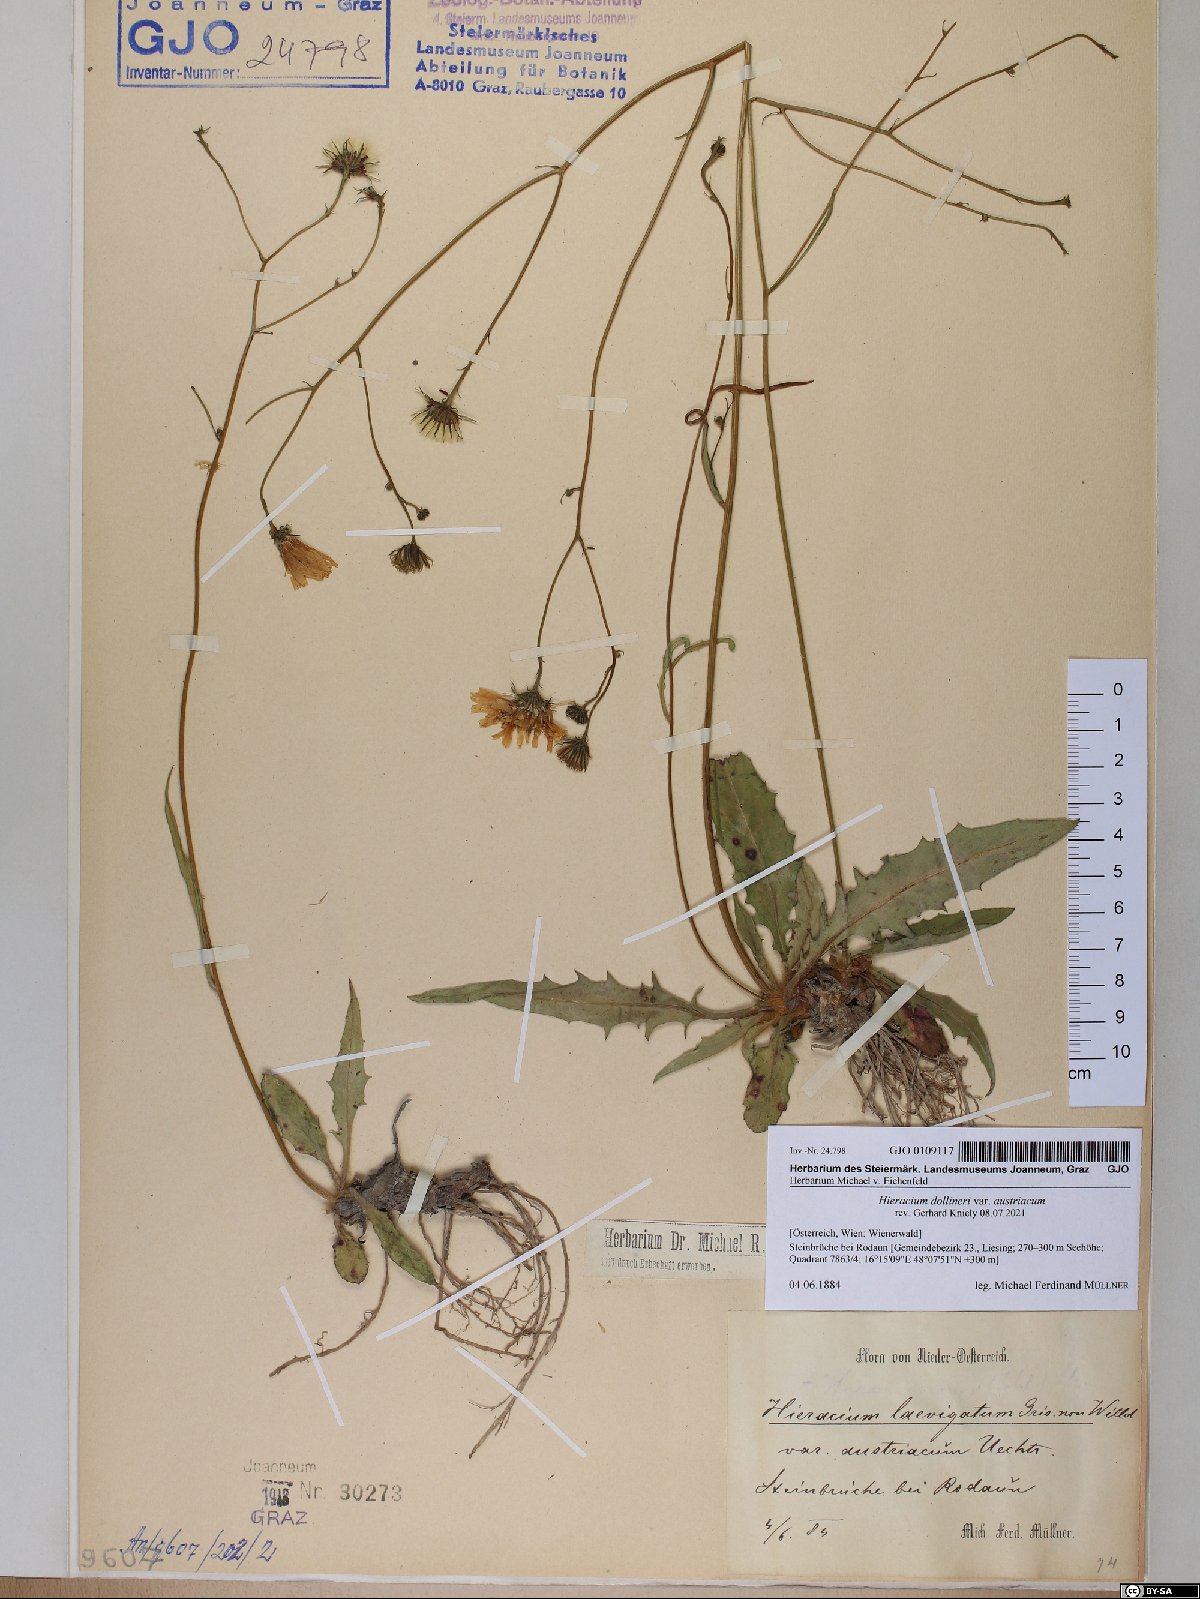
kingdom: Plantae
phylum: Tracheophyta
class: Magnoliopsida
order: Asterales
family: Asteraceae
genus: Hieracium
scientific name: Hieracium dollineri
